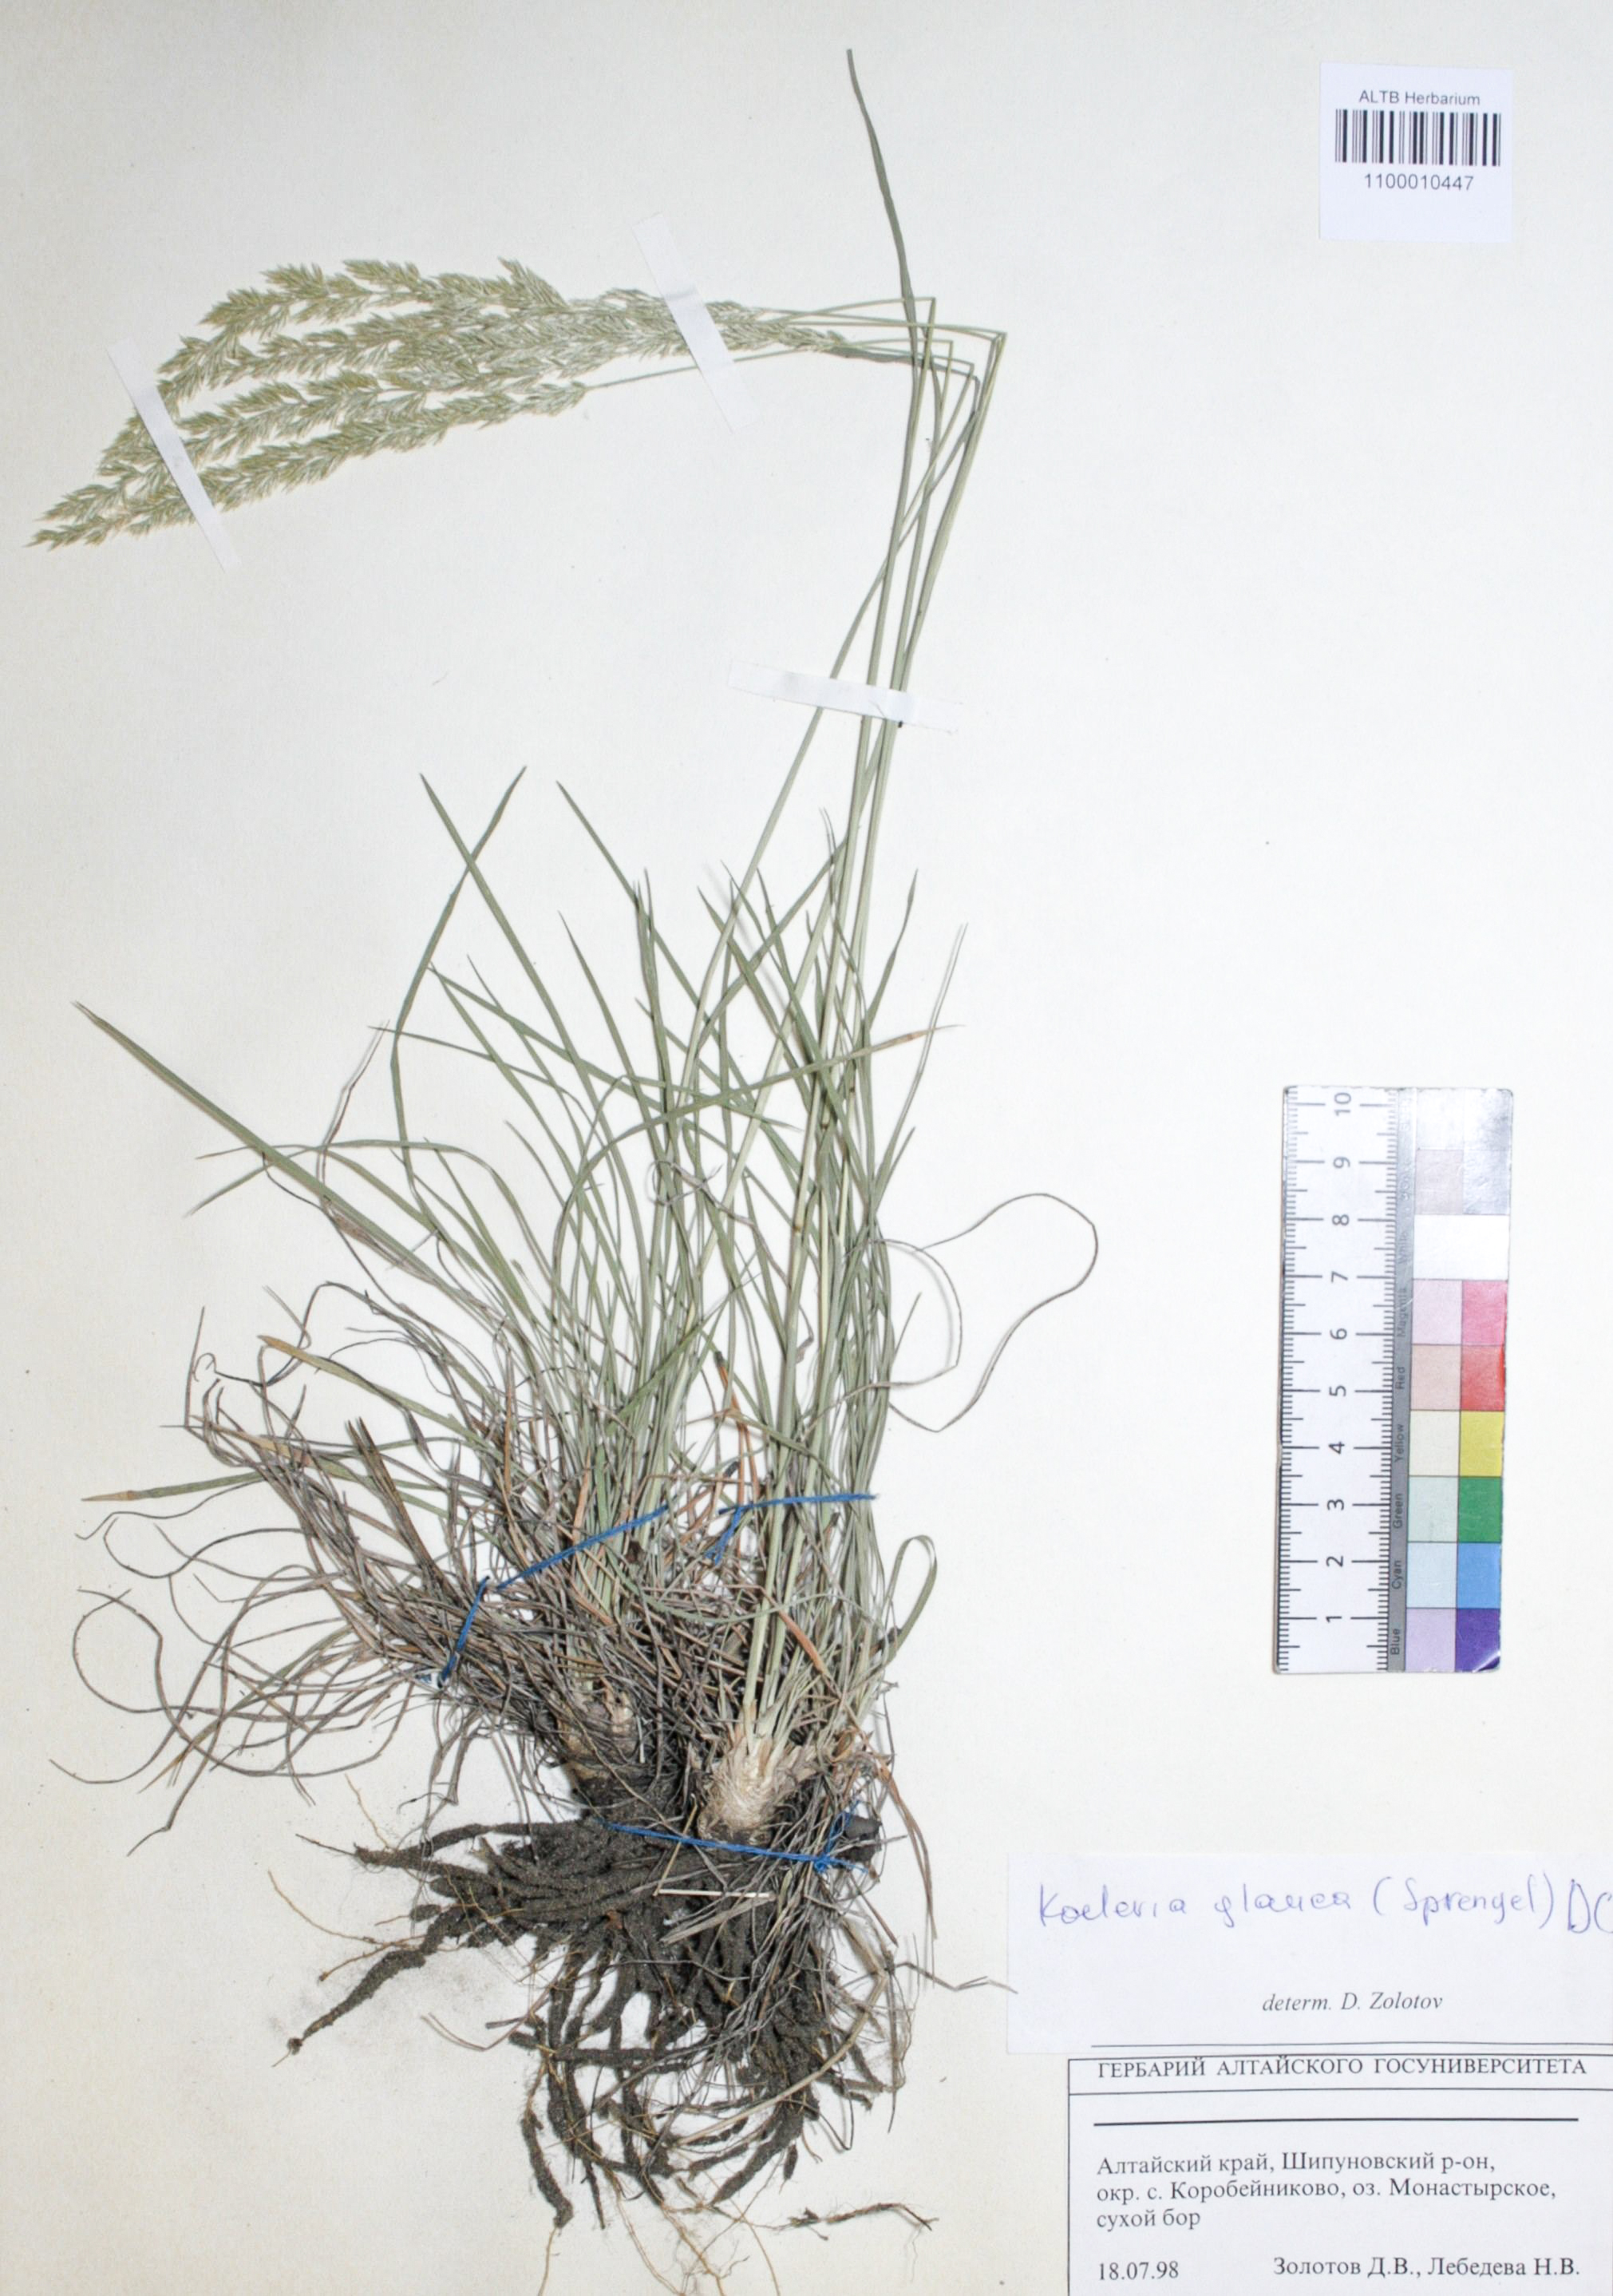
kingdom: Plantae
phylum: Tracheophyta
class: Liliopsida
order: Poales
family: Poaceae
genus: Koeleria
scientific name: Koeleria glauca
